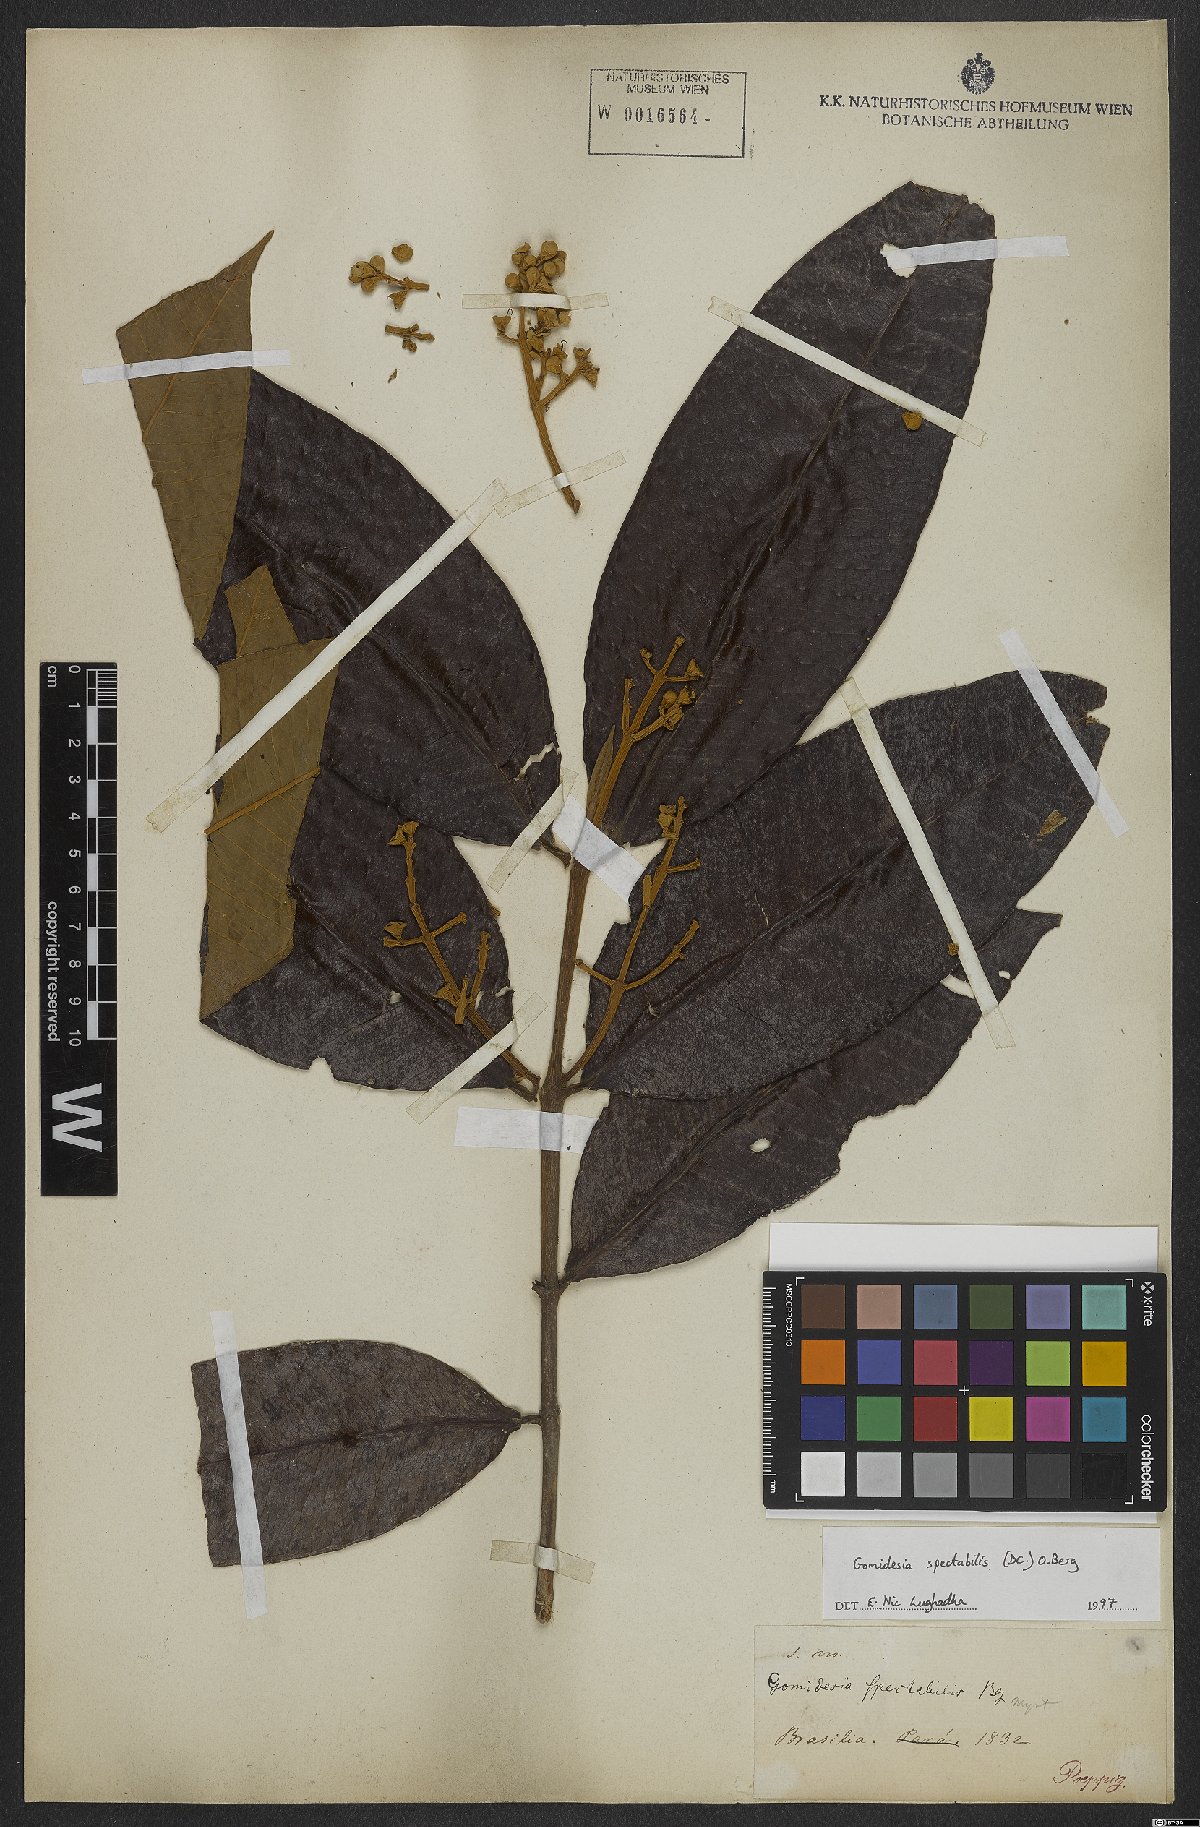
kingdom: Plantae
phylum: Tracheophyta
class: Magnoliopsida
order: Myrtales
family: Myrtaceae
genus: Myrcia
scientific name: Myrcia spectabilis
